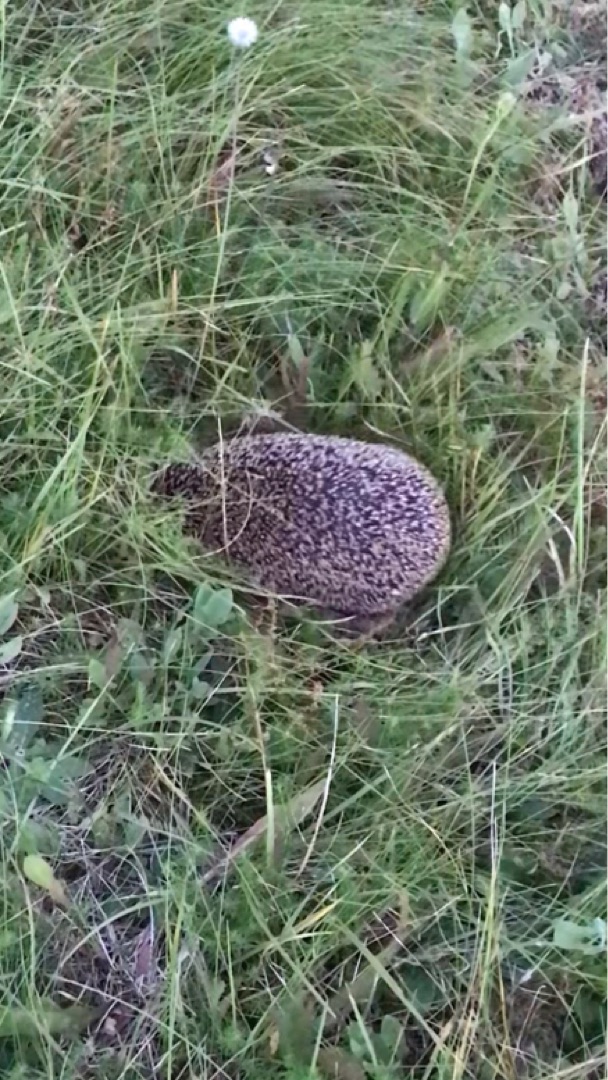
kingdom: Animalia
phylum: Chordata
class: Mammalia
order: Erinaceomorpha
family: Erinaceidae
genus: Erinaceus
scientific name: Erinaceus europaeus
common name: Pindsvin
